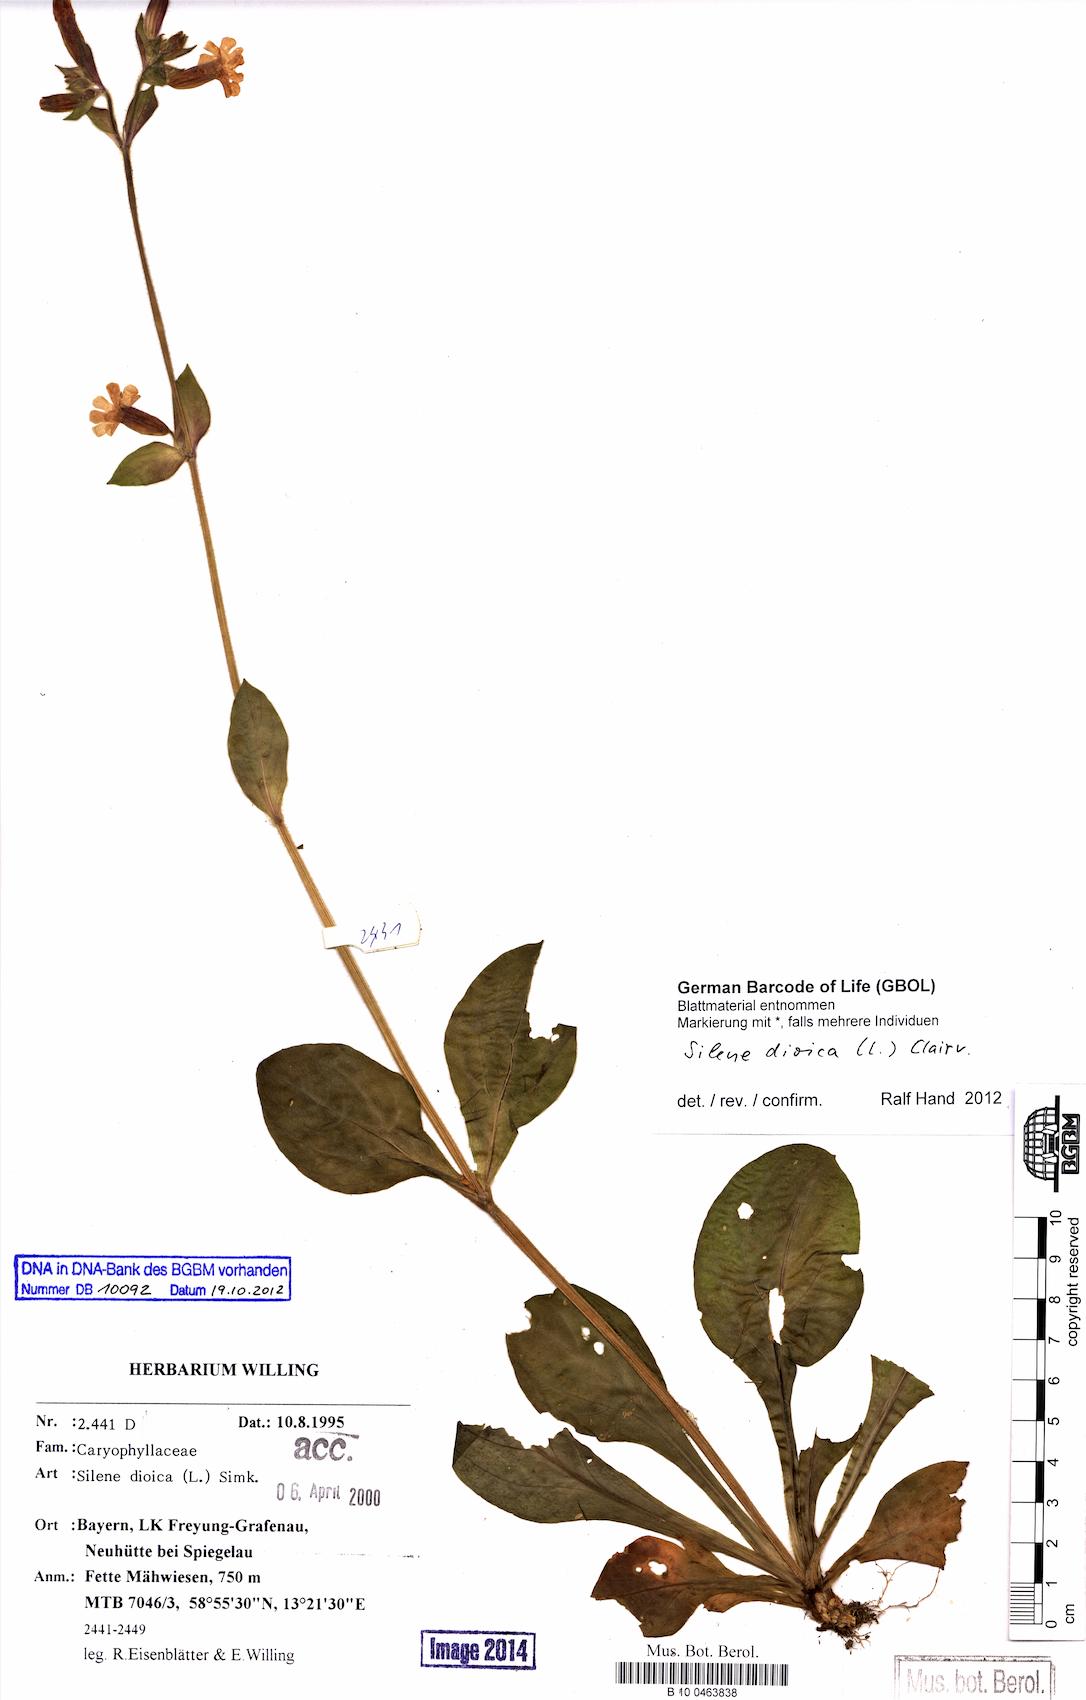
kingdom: Plantae
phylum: Tracheophyta
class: Magnoliopsida
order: Caryophyllales
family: Caryophyllaceae
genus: Silene
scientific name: Silene dioica
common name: Red campion
